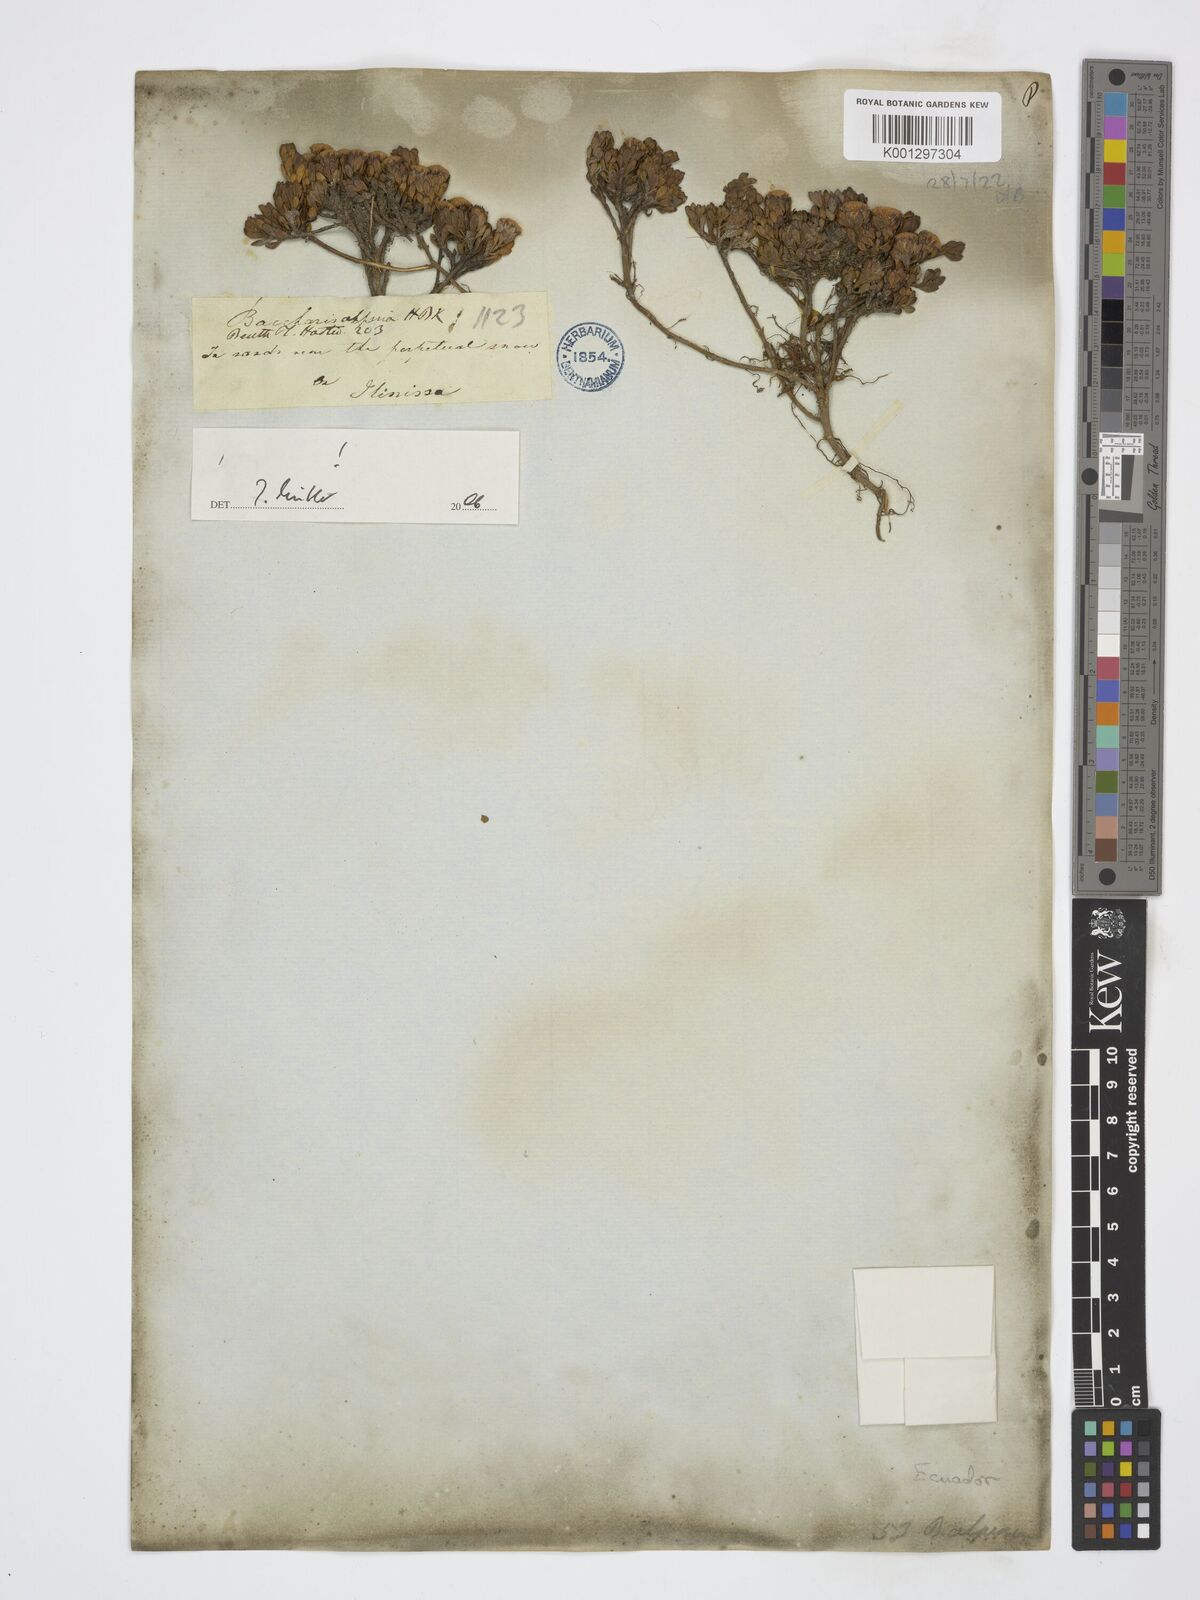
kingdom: Plantae
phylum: Tracheophyta
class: Magnoliopsida
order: Asterales
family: Asteraceae
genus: Baccharis
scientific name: Baccharis alpina
